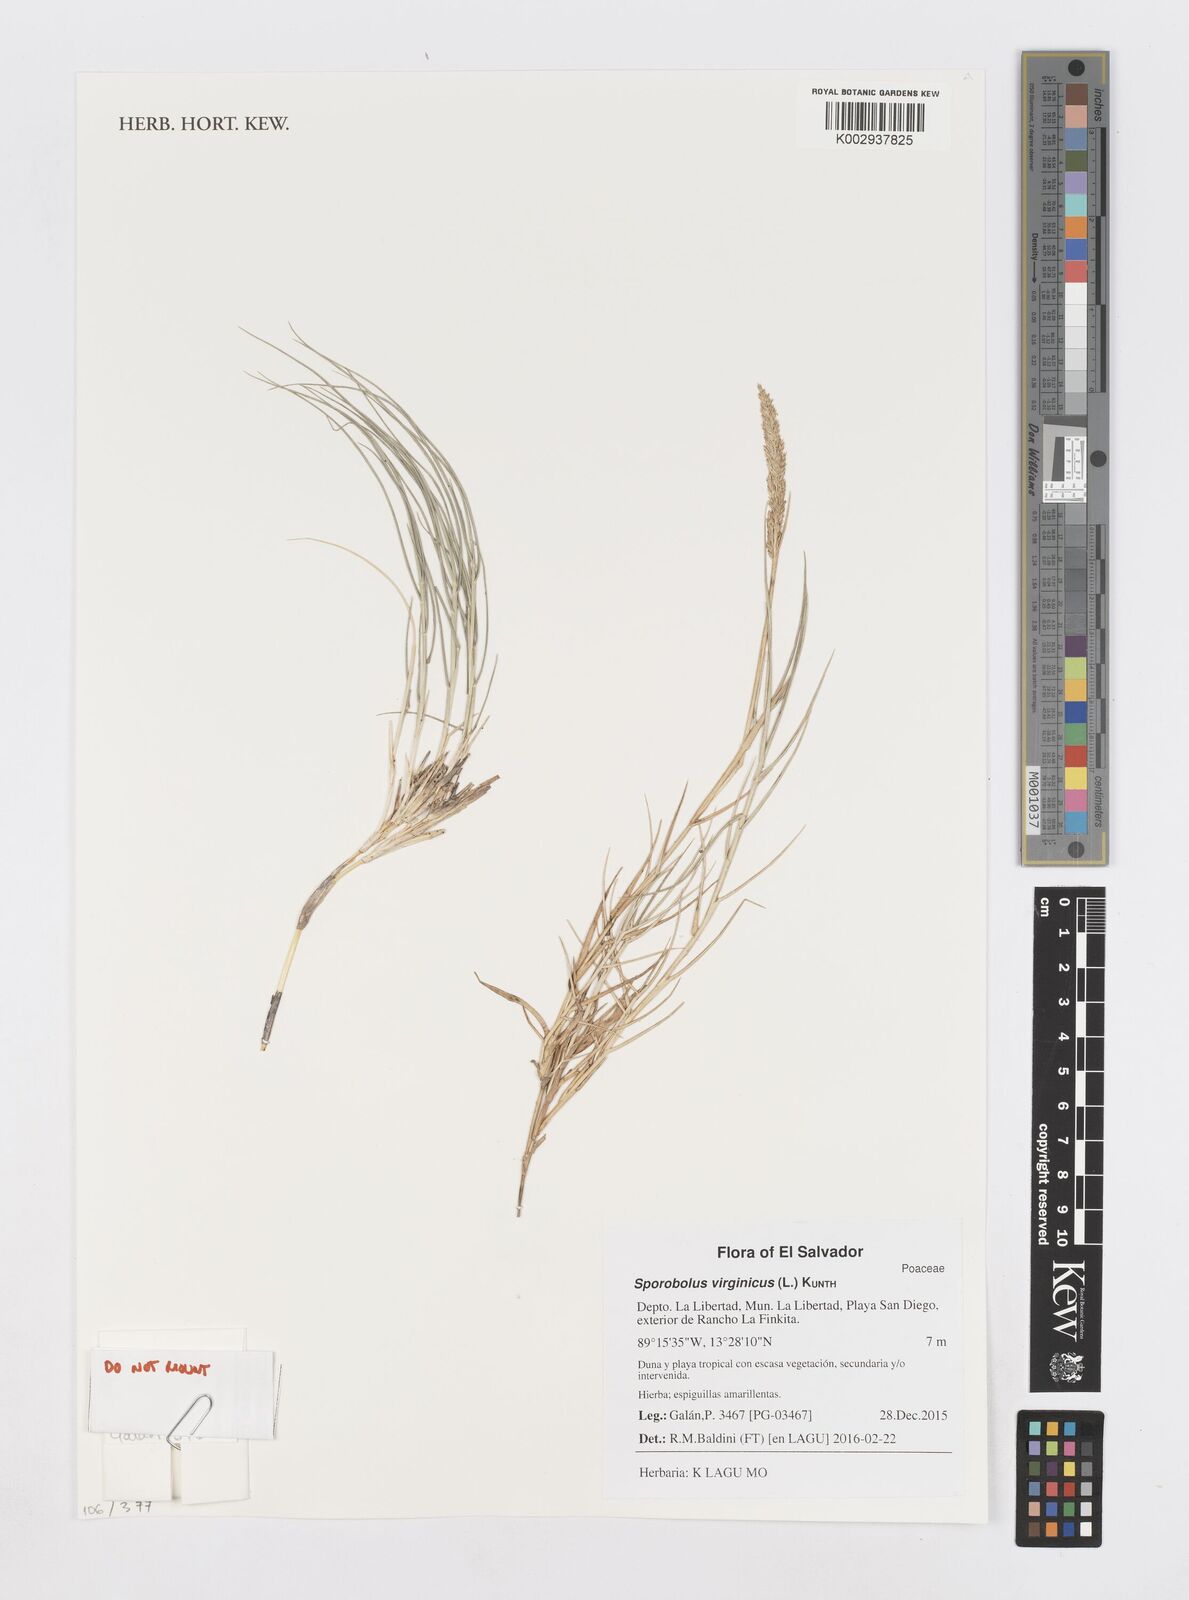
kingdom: Plantae
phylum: Tracheophyta
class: Liliopsida
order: Poales
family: Poaceae
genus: Sporobolus
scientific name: Sporobolus virginicus
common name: Beach dropseed
